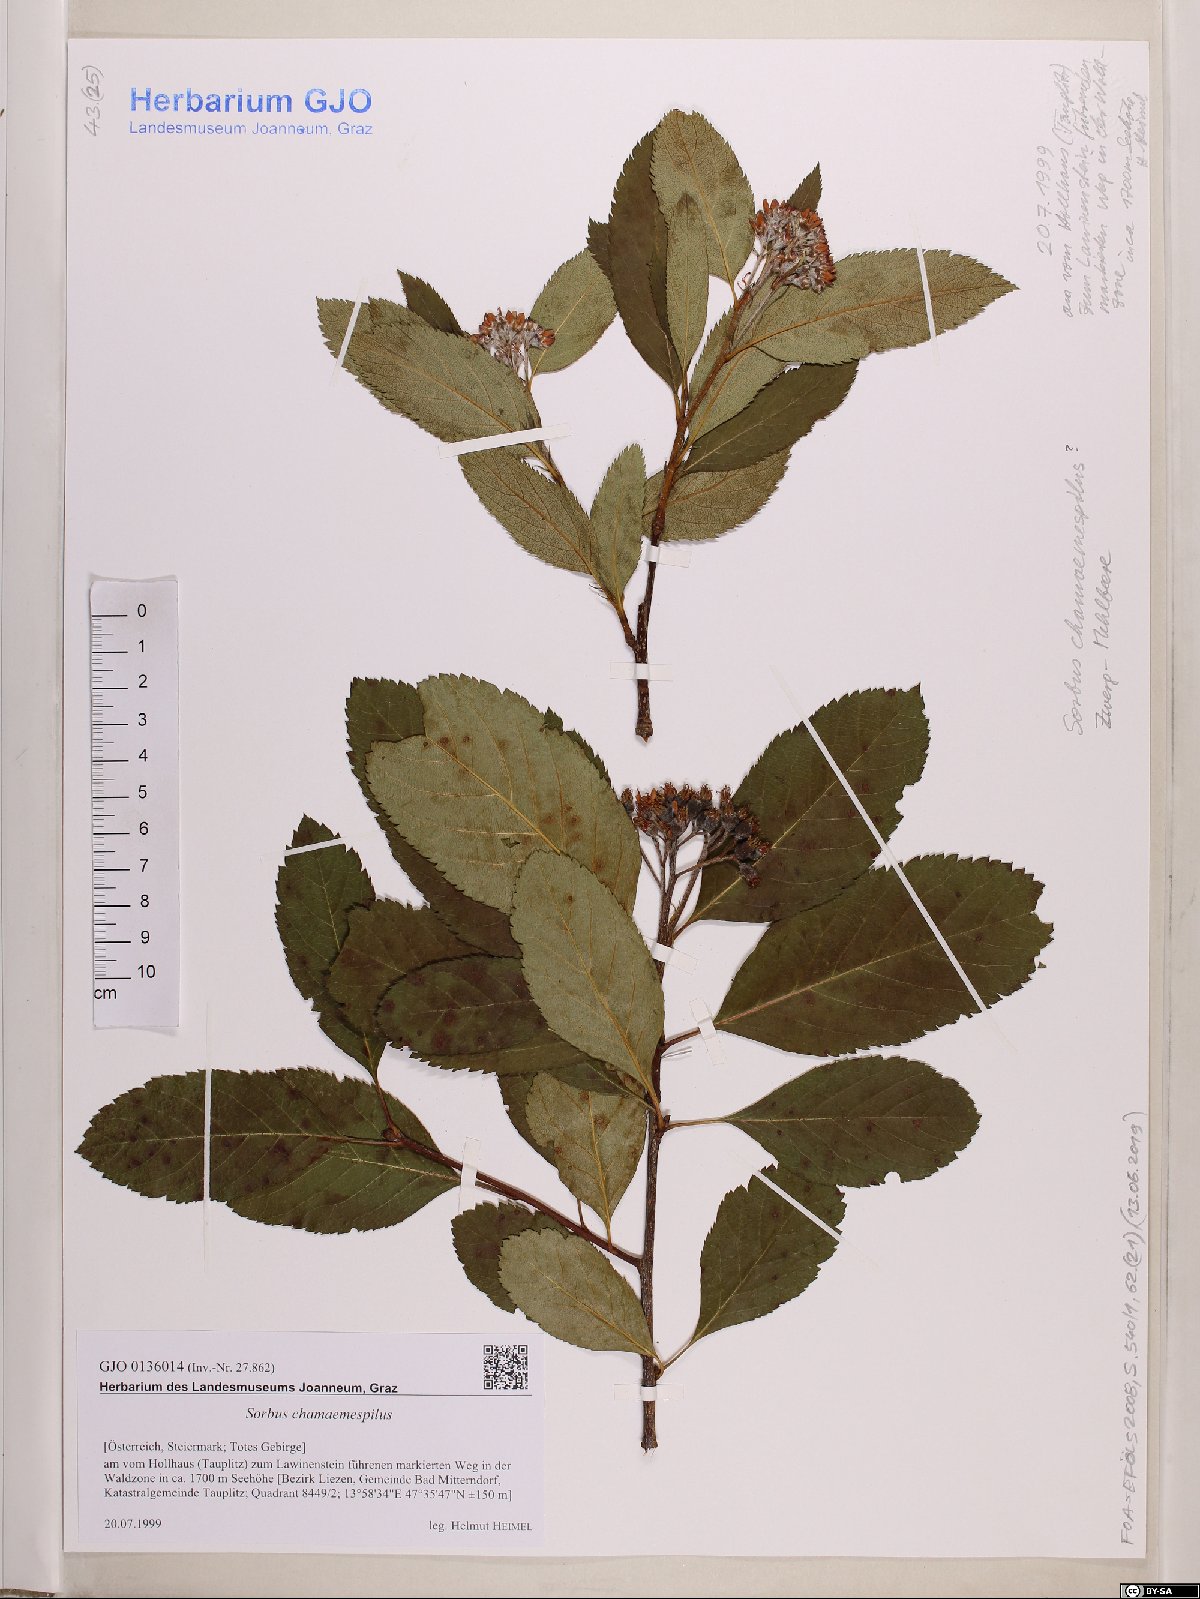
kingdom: Plantae
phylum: Tracheophyta
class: Magnoliopsida
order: Rosales
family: Rosaceae
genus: Chamaemespilus
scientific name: Chamaemespilus alpina
